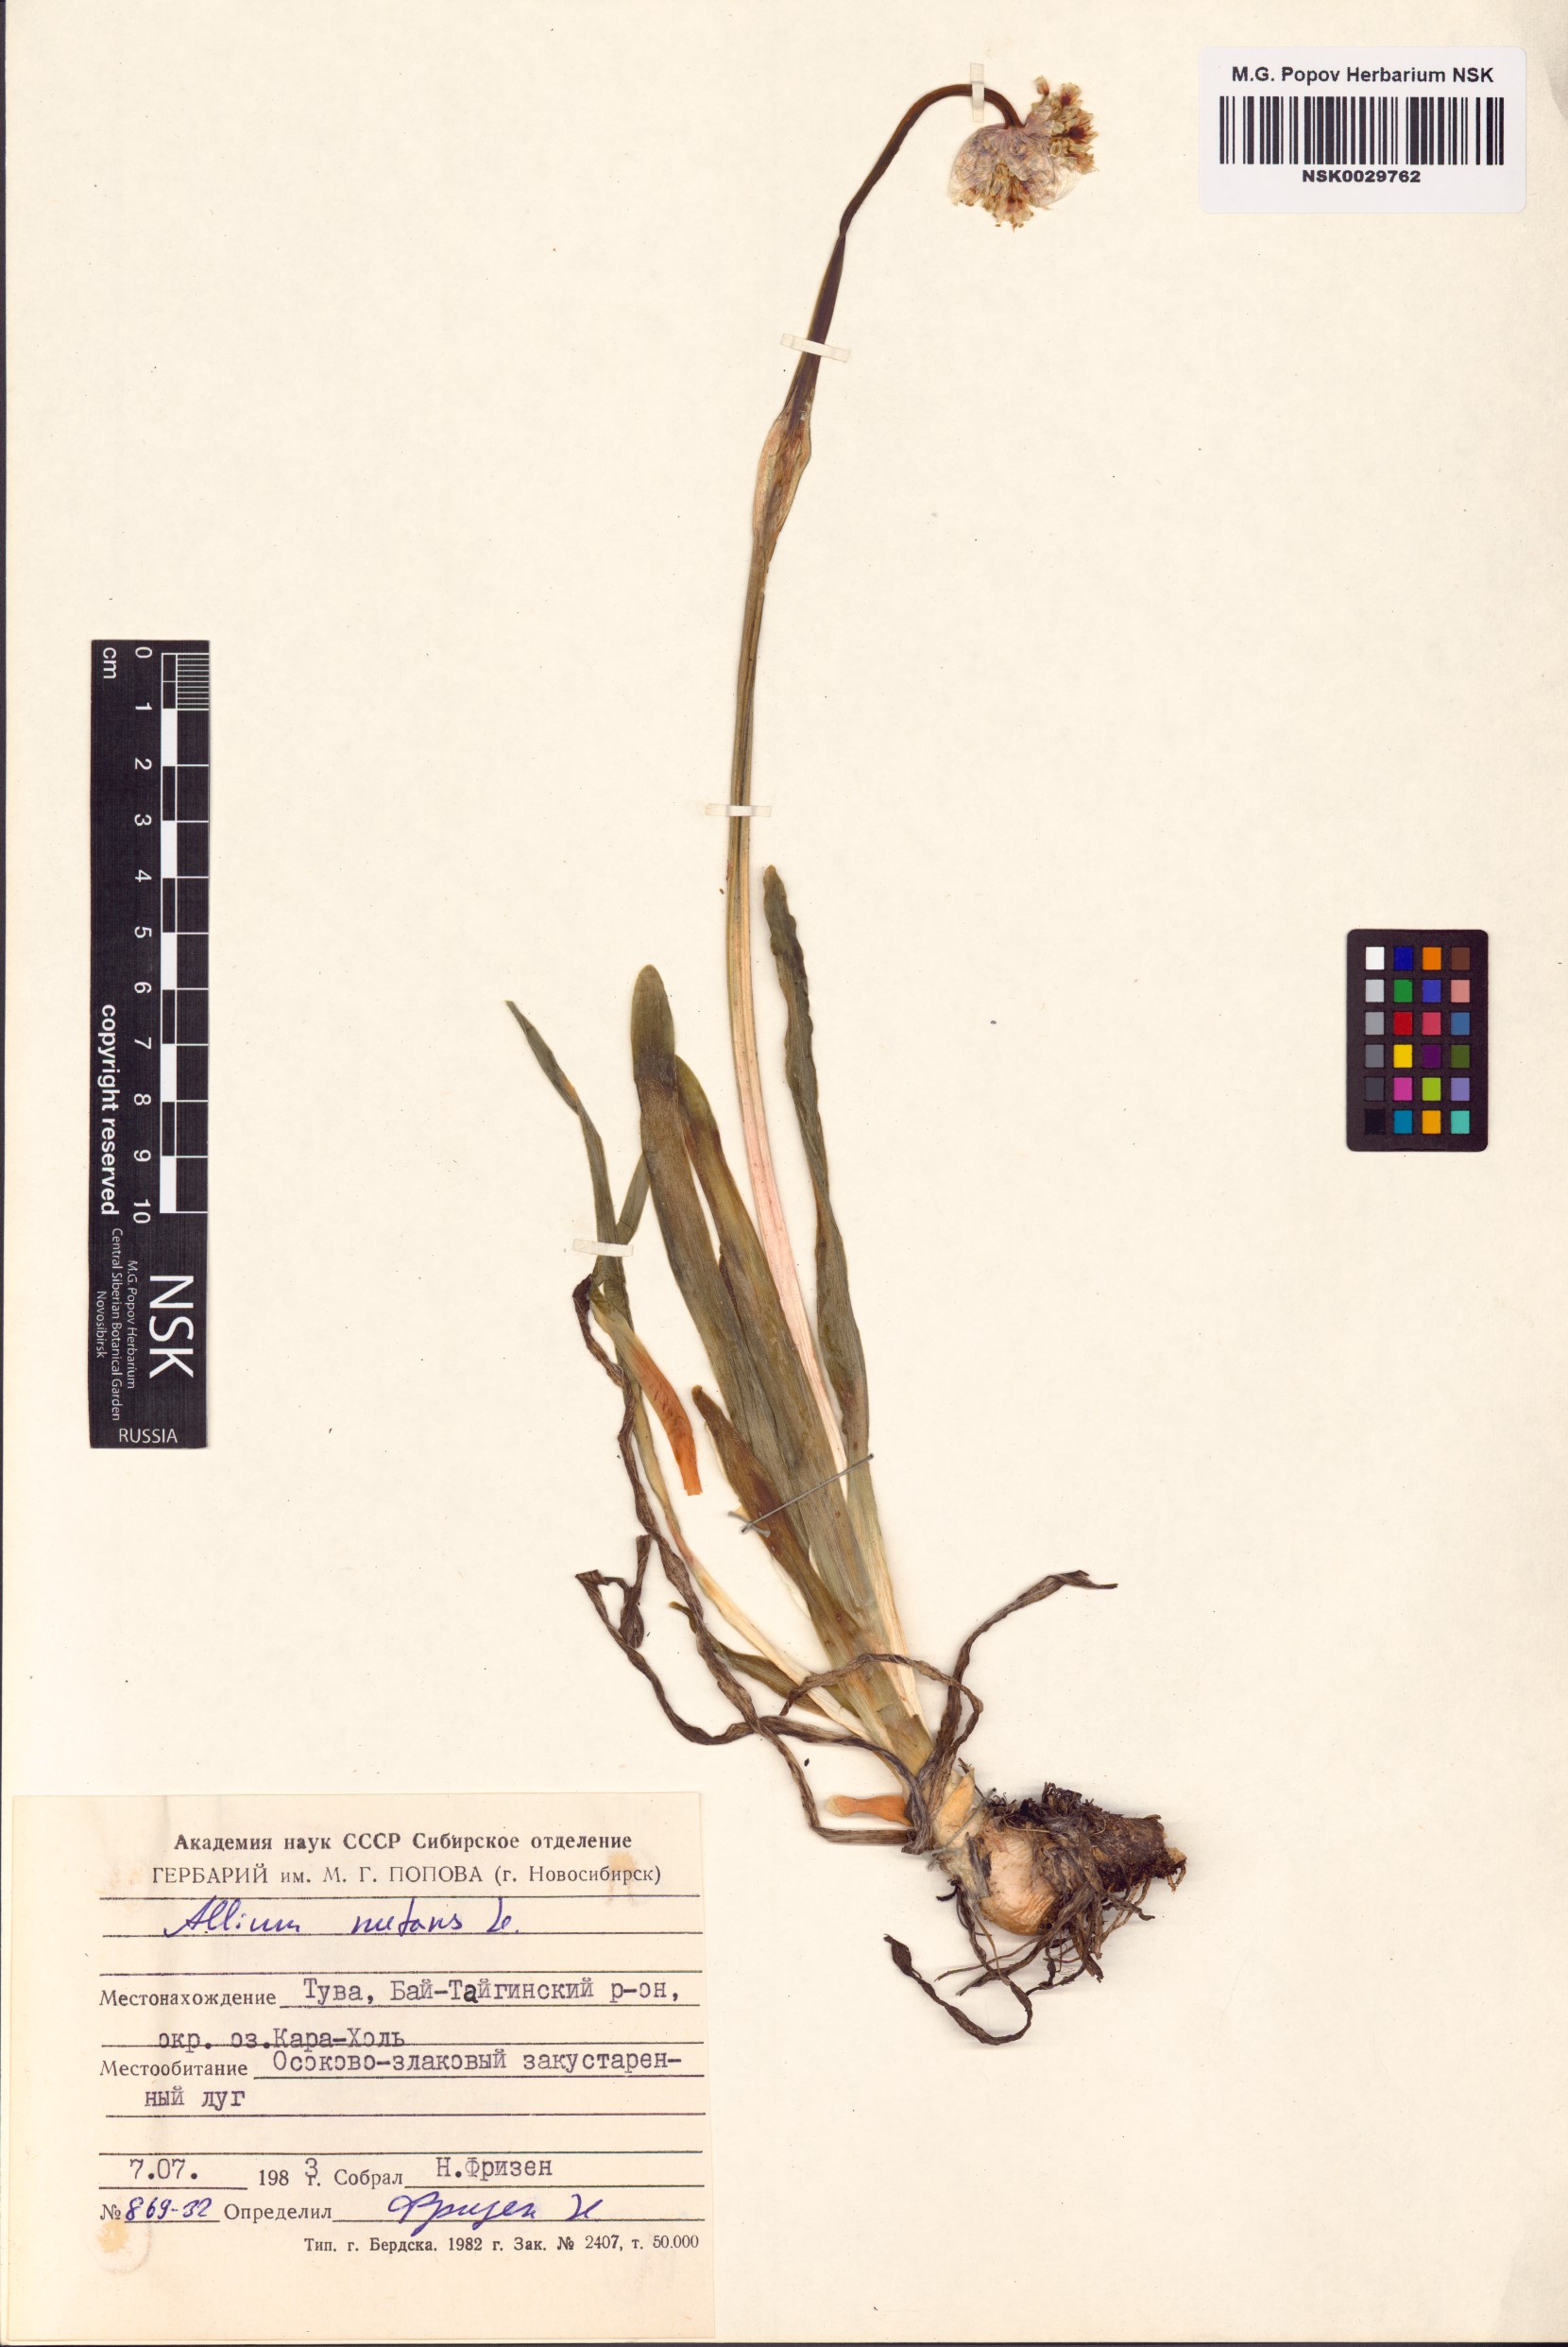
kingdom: Plantae
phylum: Tracheophyta
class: Liliopsida
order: Asparagales
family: Amaryllidaceae
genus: Allium
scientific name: Allium nutans
